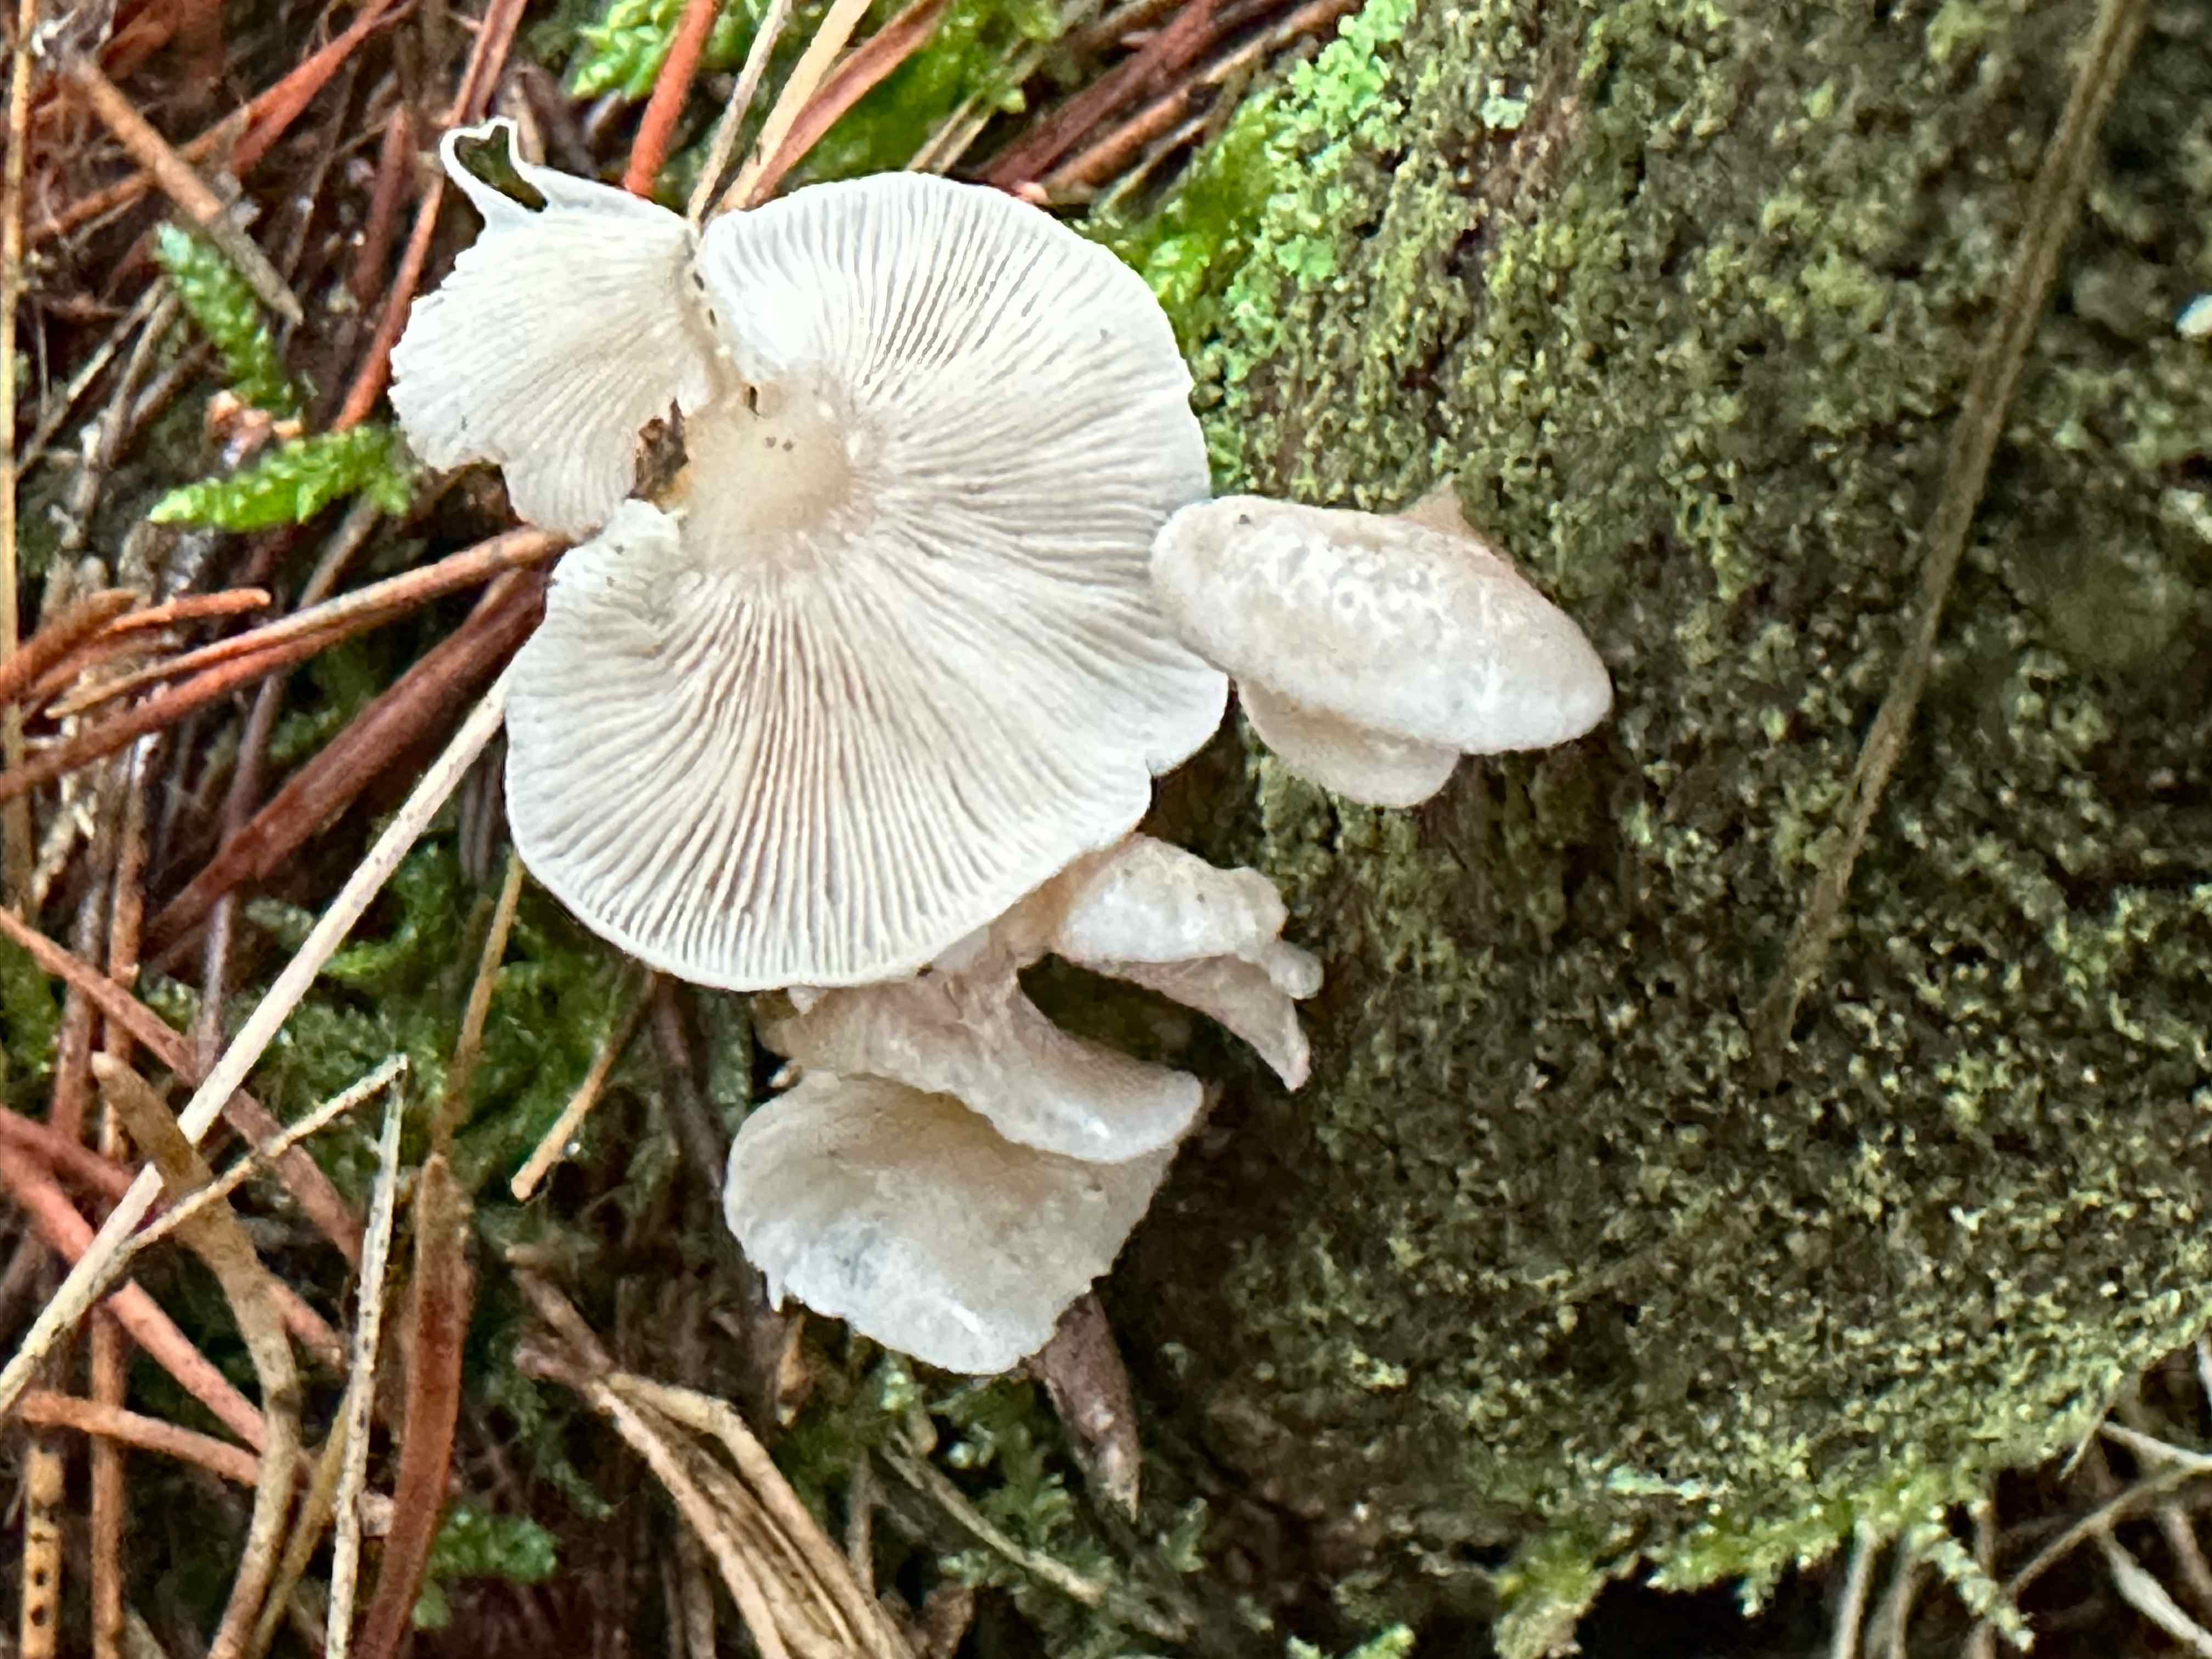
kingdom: Fungi
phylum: Basidiomycota
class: Agaricomycetes
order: Agaricales
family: Mycenaceae
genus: Panellus
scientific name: Panellus mitis
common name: mild epaulethat
